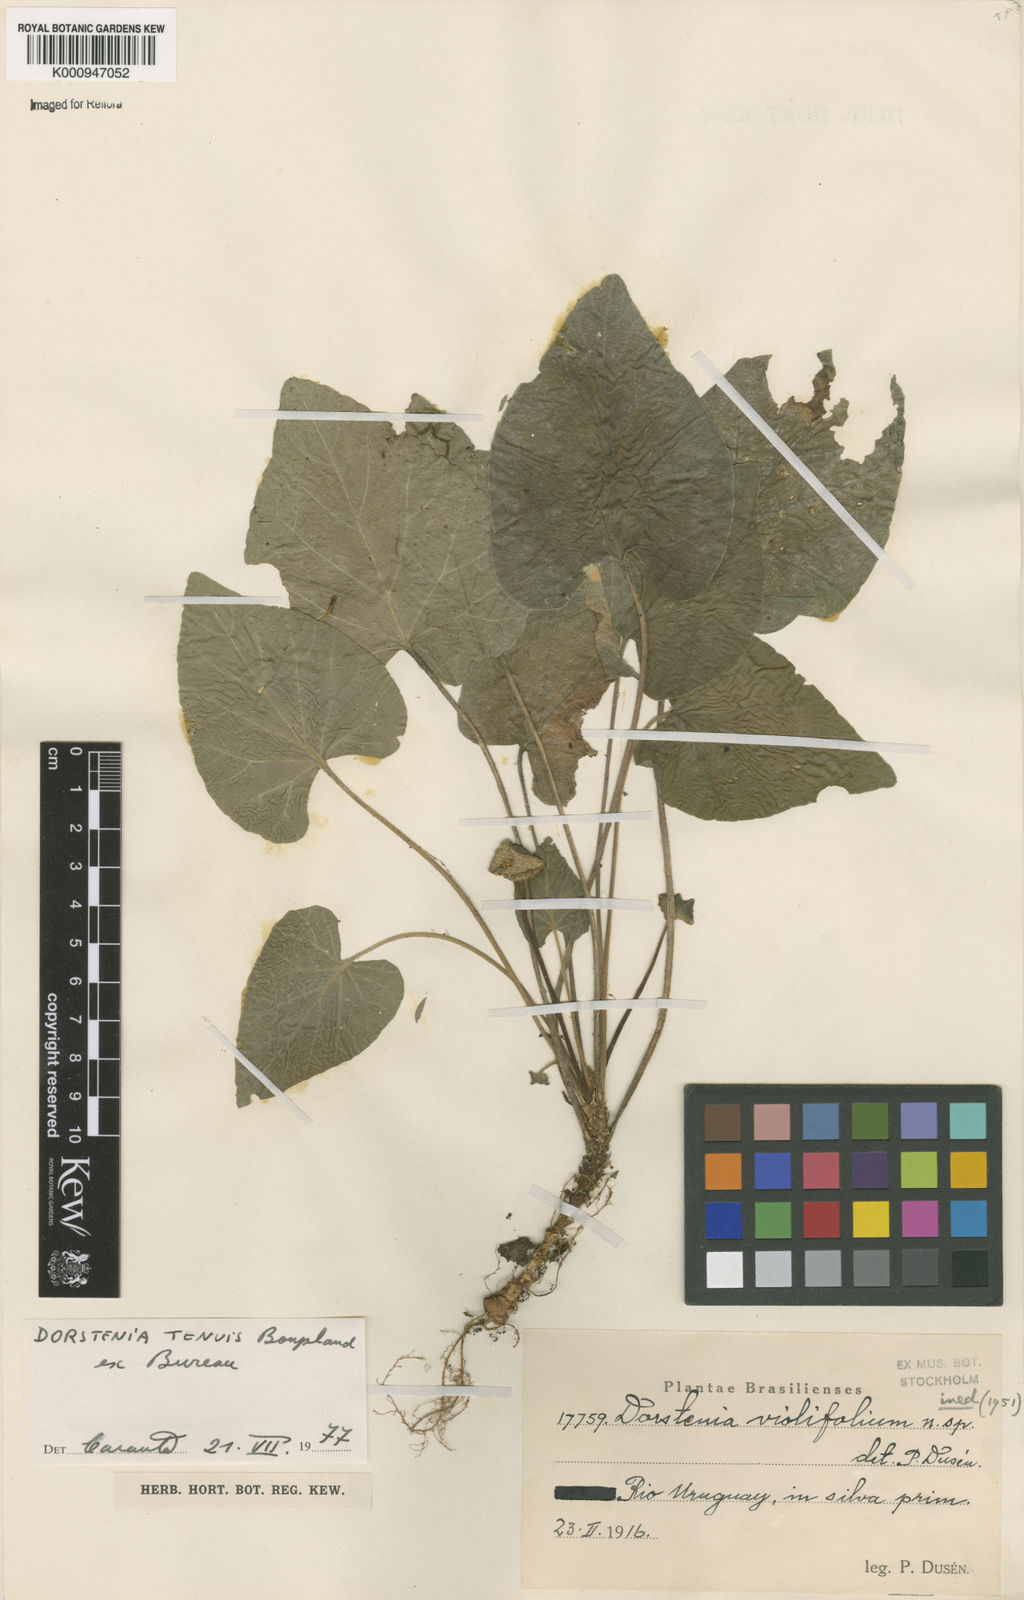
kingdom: Plantae
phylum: Tracheophyta
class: Magnoliopsida
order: Rosales
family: Moraceae
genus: Dorstenia
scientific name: Dorstenia tenuis
